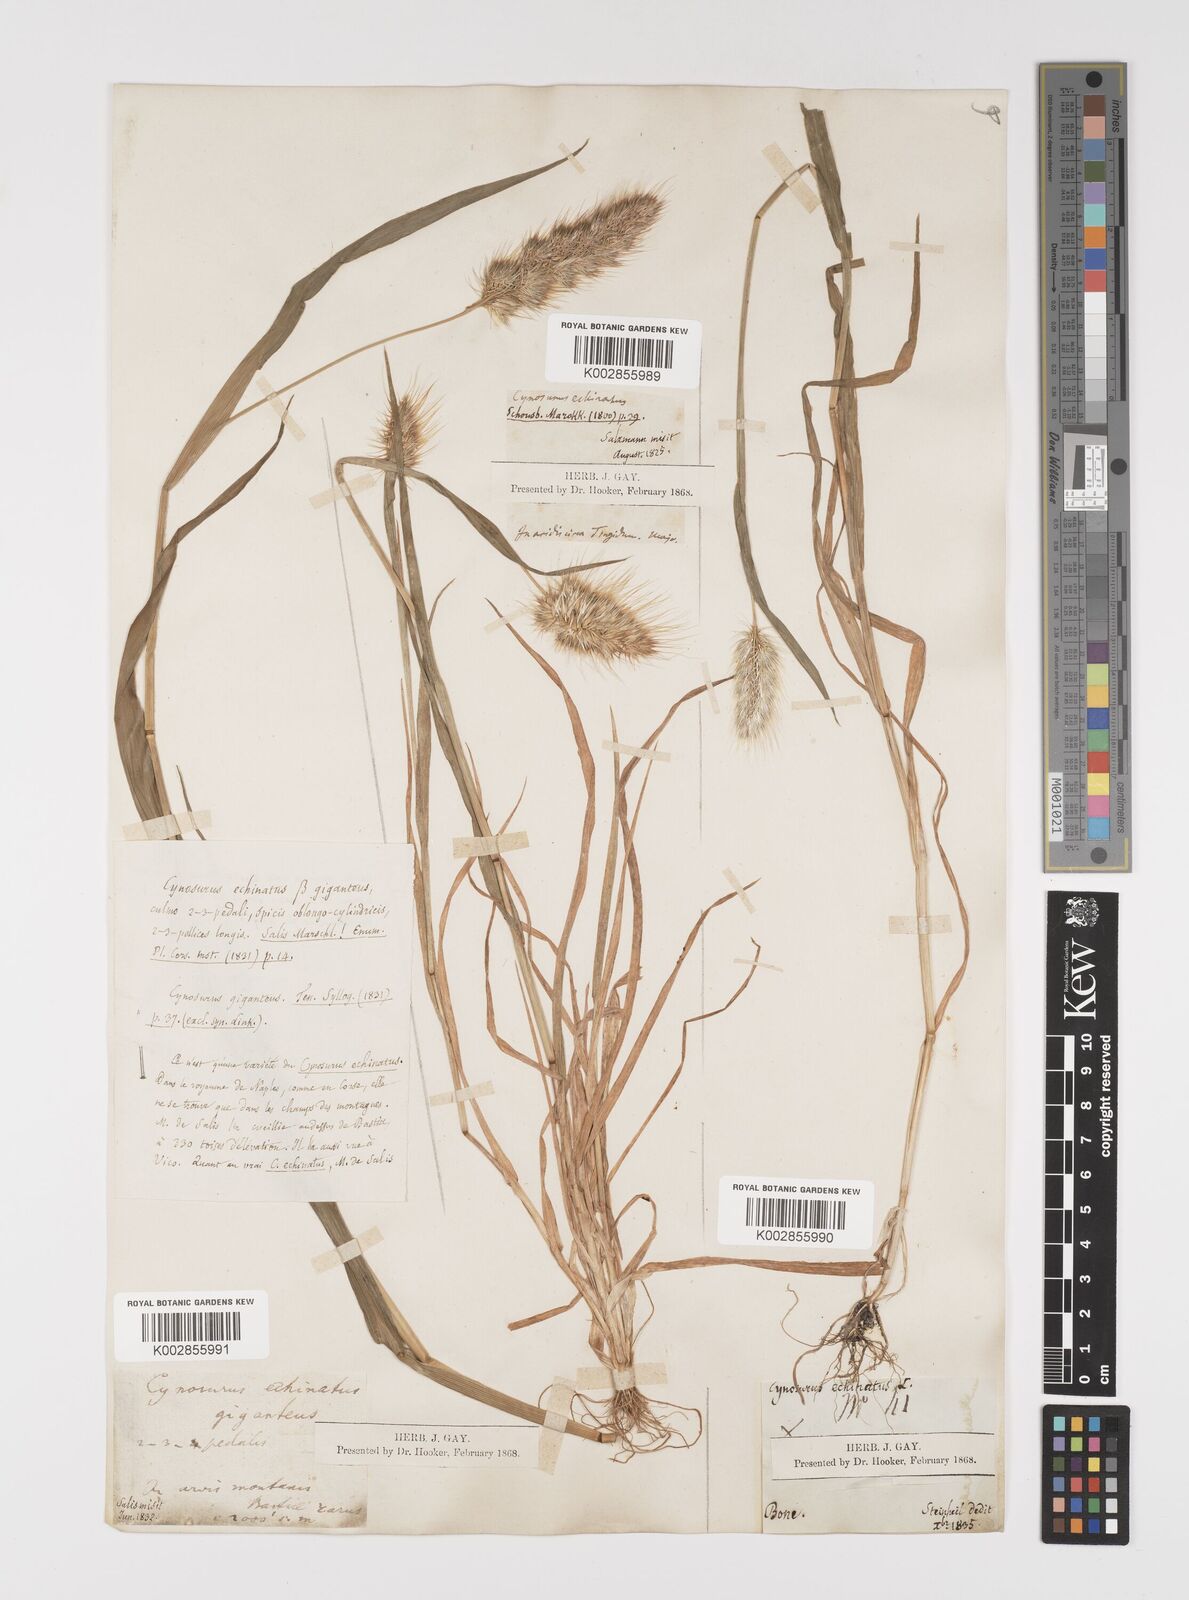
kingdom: Plantae
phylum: Tracheophyta
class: Liliopsida
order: Poales
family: Poaceae
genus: Cynosurus
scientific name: Cynosurus echinatus
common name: Rough dog's-tail
